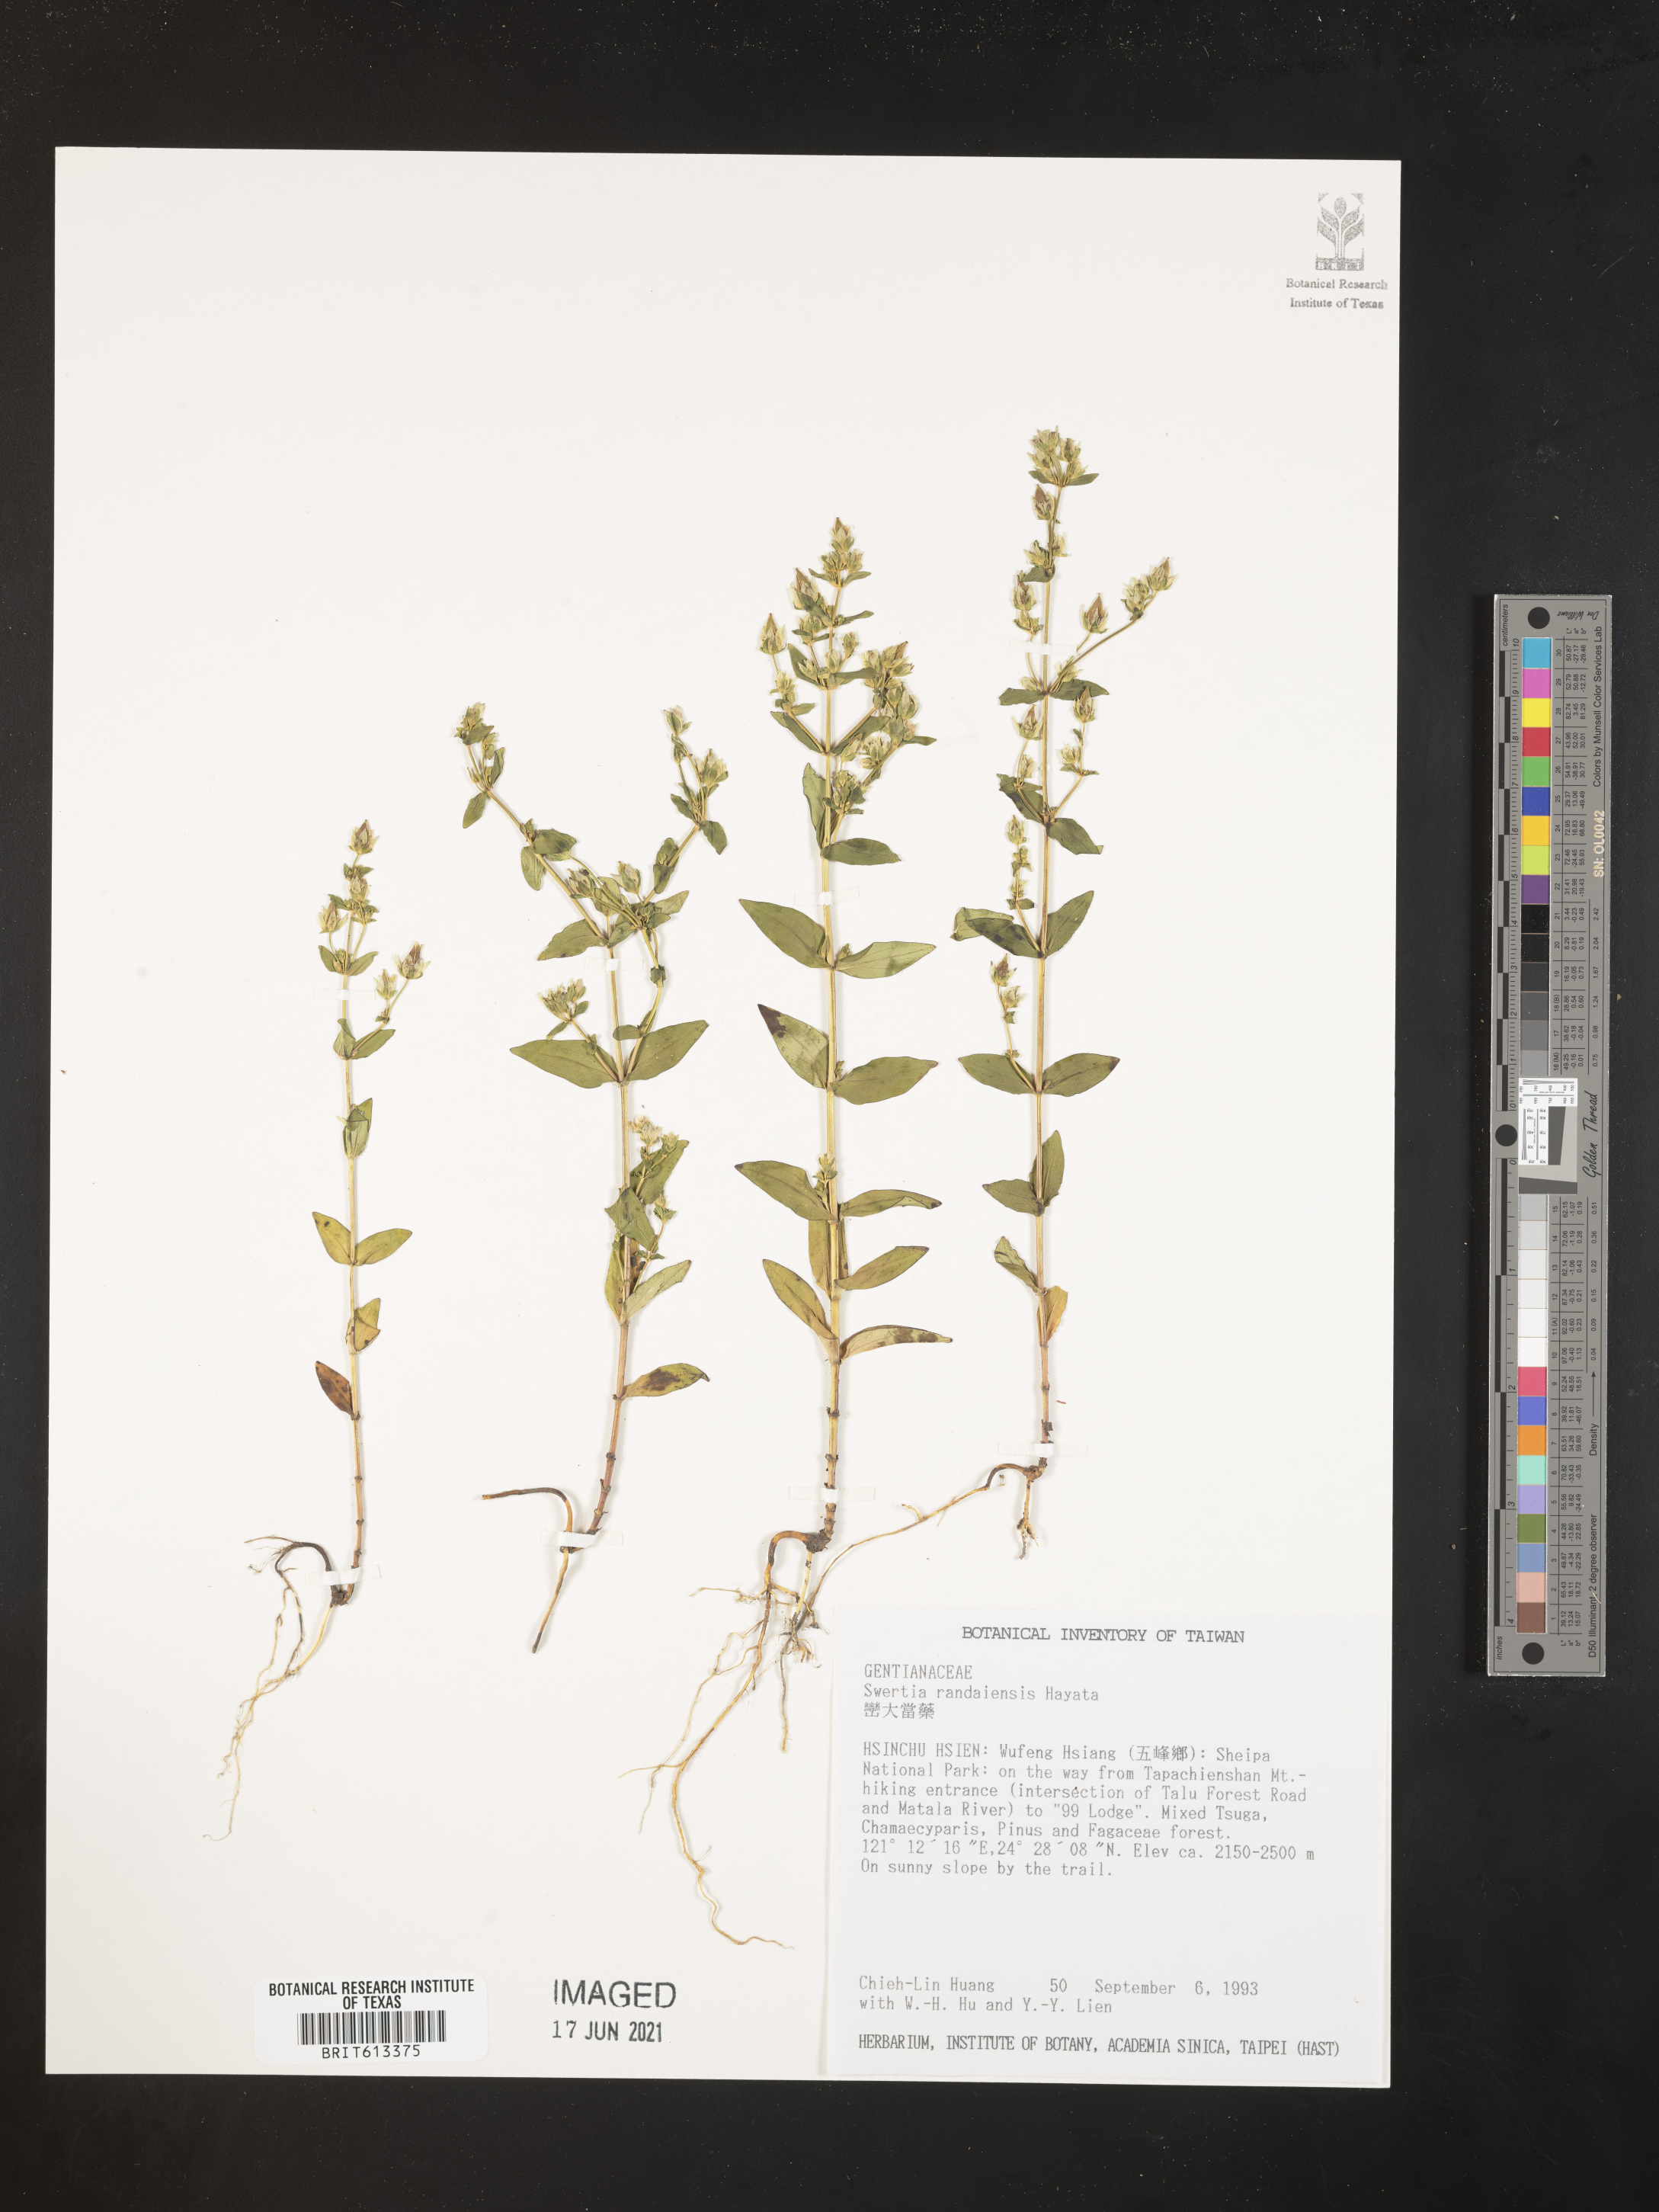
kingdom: Plantae
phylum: Tracheophyta
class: Magnoliopsida
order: Gentianales
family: Gentianaceae
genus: Swertia
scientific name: Swertia macrosperma
